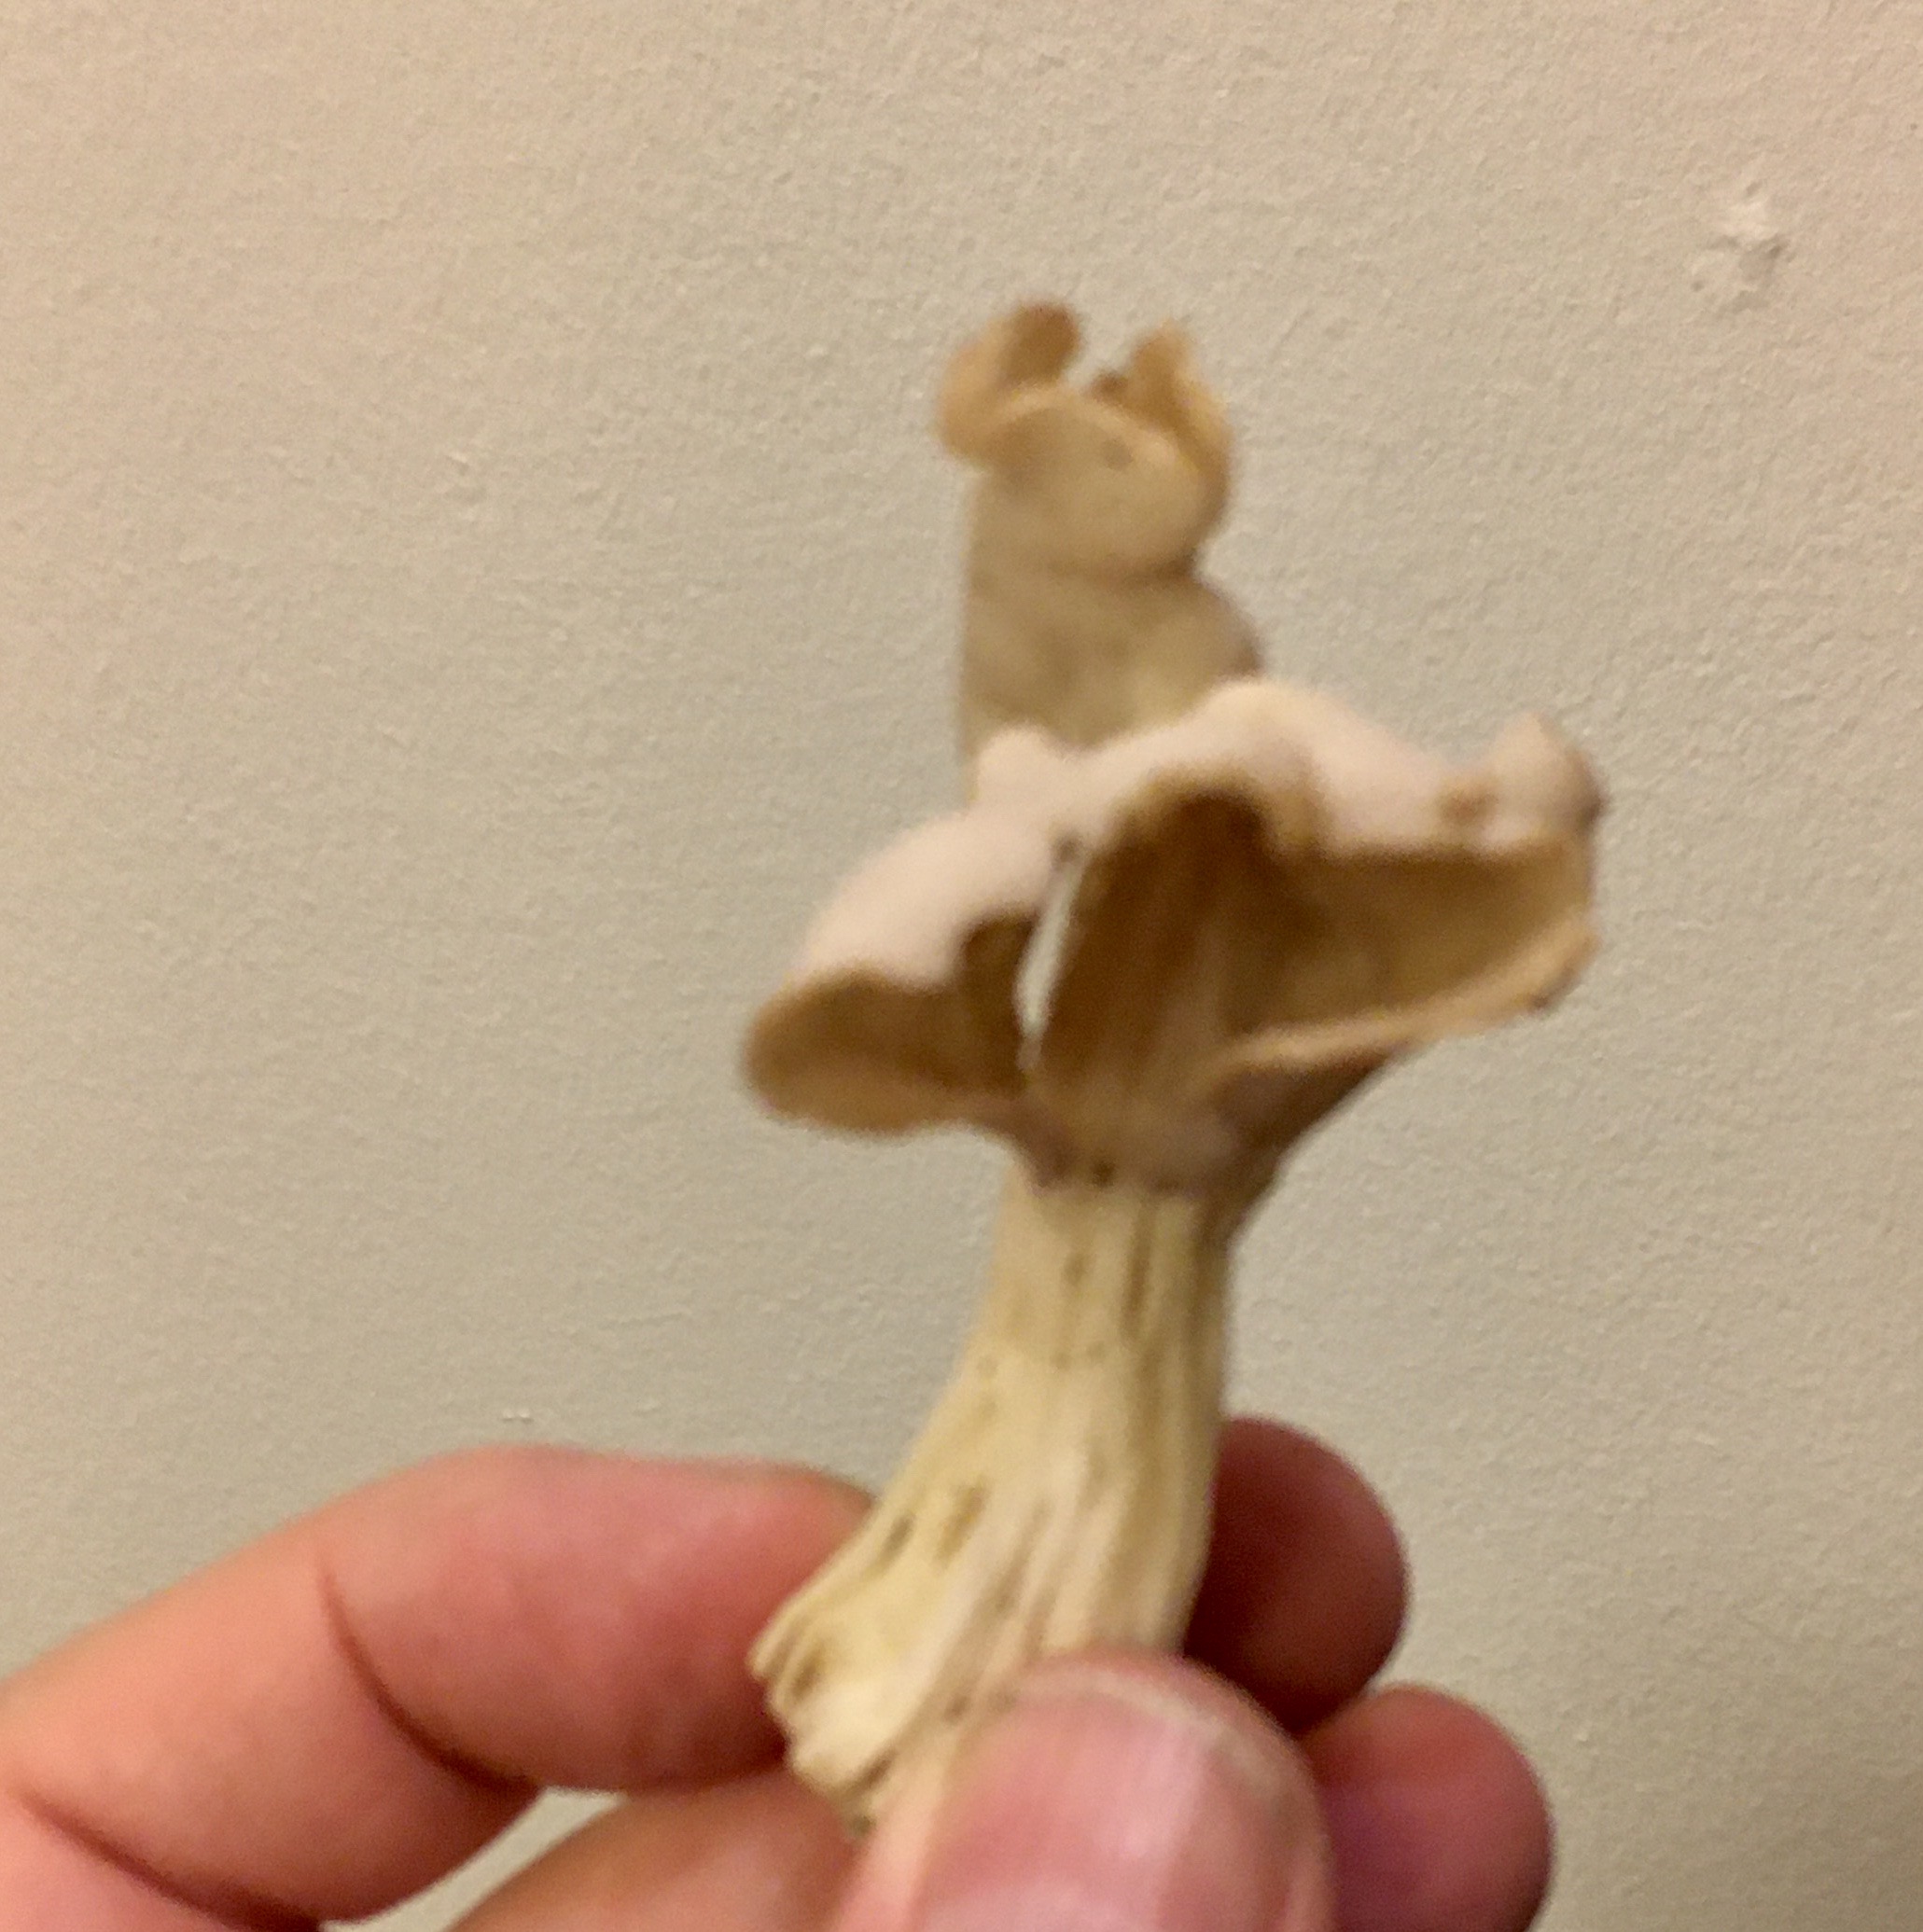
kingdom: Fungi
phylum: Ascomycota
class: Pezizomycetes
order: Pezizales
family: Helvellaceae
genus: Helvella
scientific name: Helvella crispa
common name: kruset foldhat
